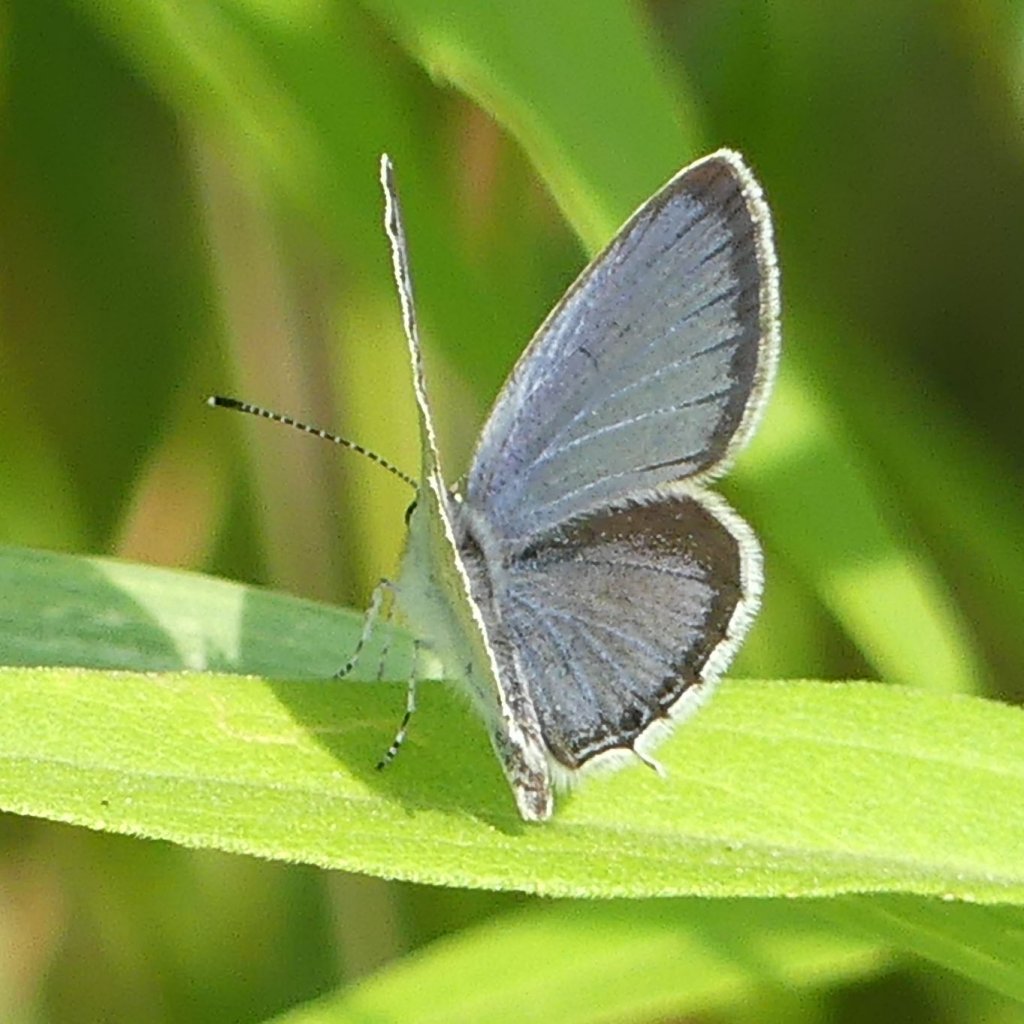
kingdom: Animalia
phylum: Arthropoda
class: Insecta
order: Lepidoptera
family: Lycaenidae
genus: Elkalyce
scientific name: Elkalyce comyntas
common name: Eastern Tailed-Blue
